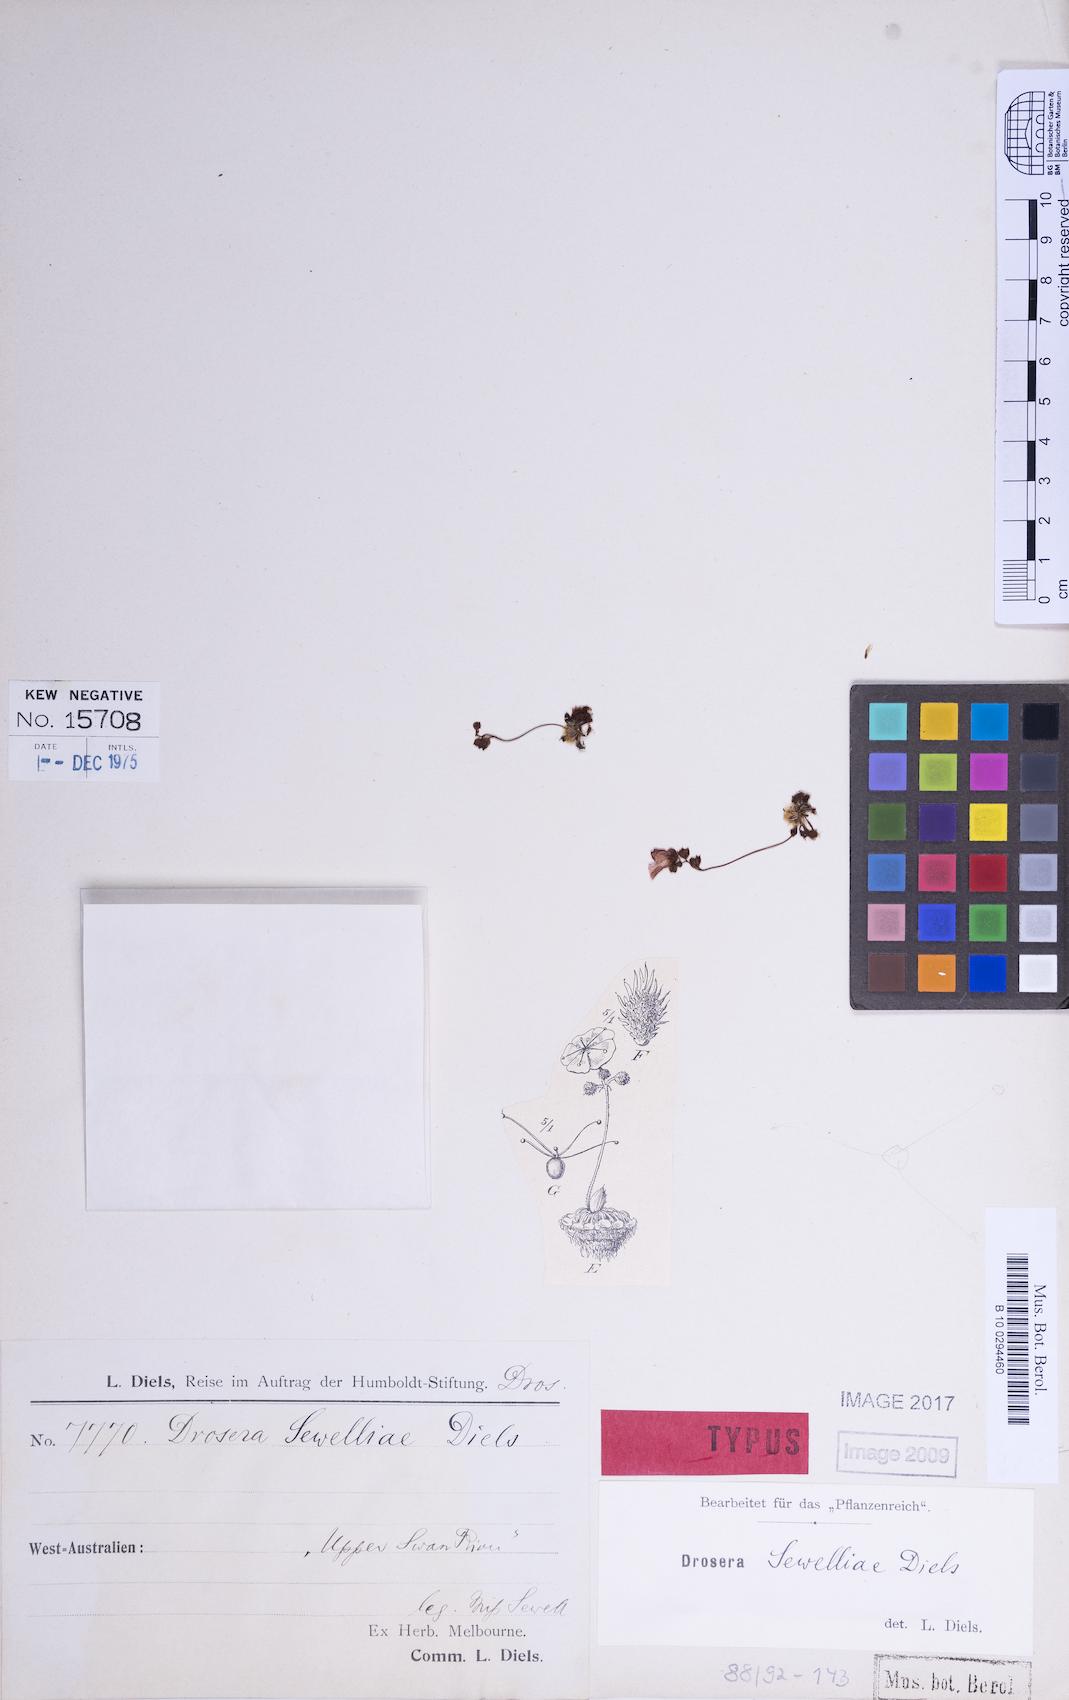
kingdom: Plantae
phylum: Tracheophyta
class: Magnoliopsida
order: Caryophyllales
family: Droseraceae
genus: Drosera
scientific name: Drosera sewelliae
